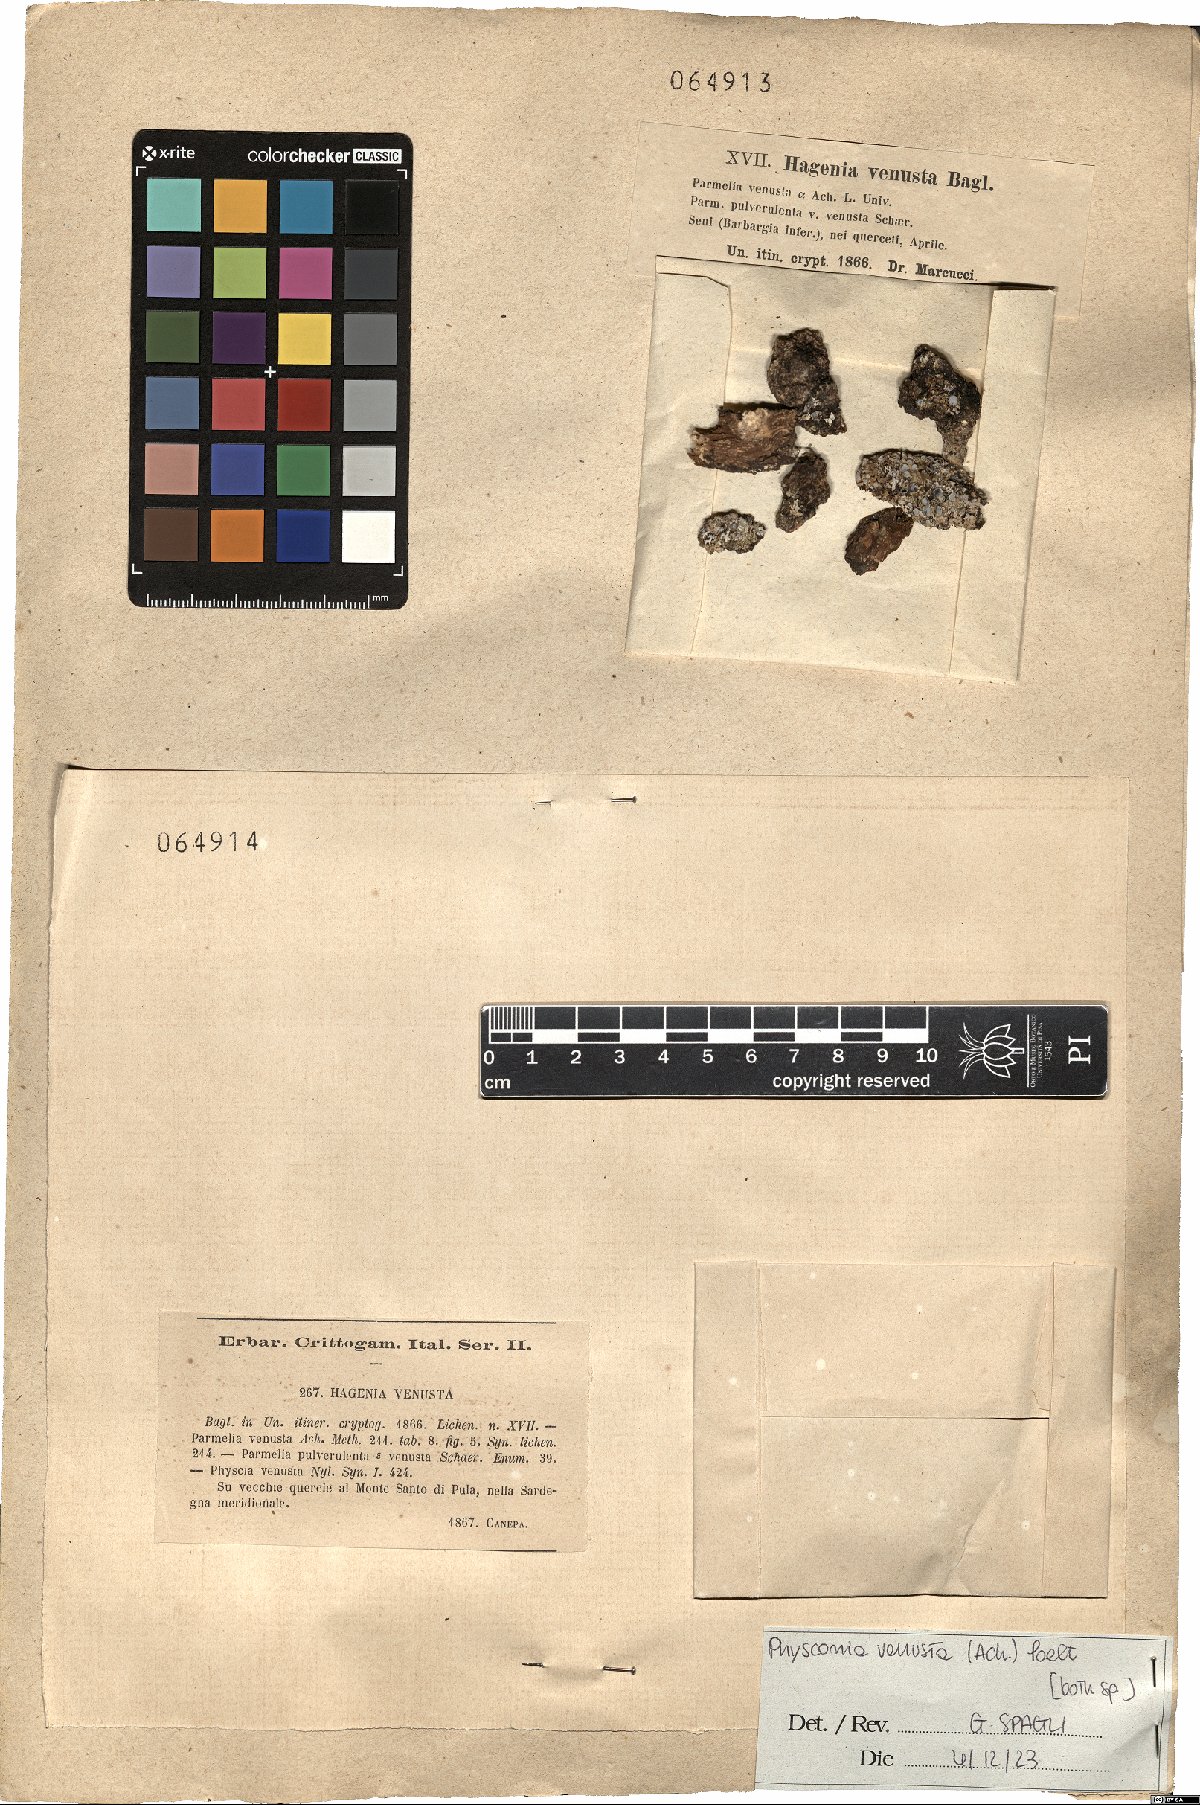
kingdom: Fungi
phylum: Ascomycota
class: Lecanoromycetes
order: Caliciales
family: Physciaceae
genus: Poeltonia
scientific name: Poeltonia venusta
